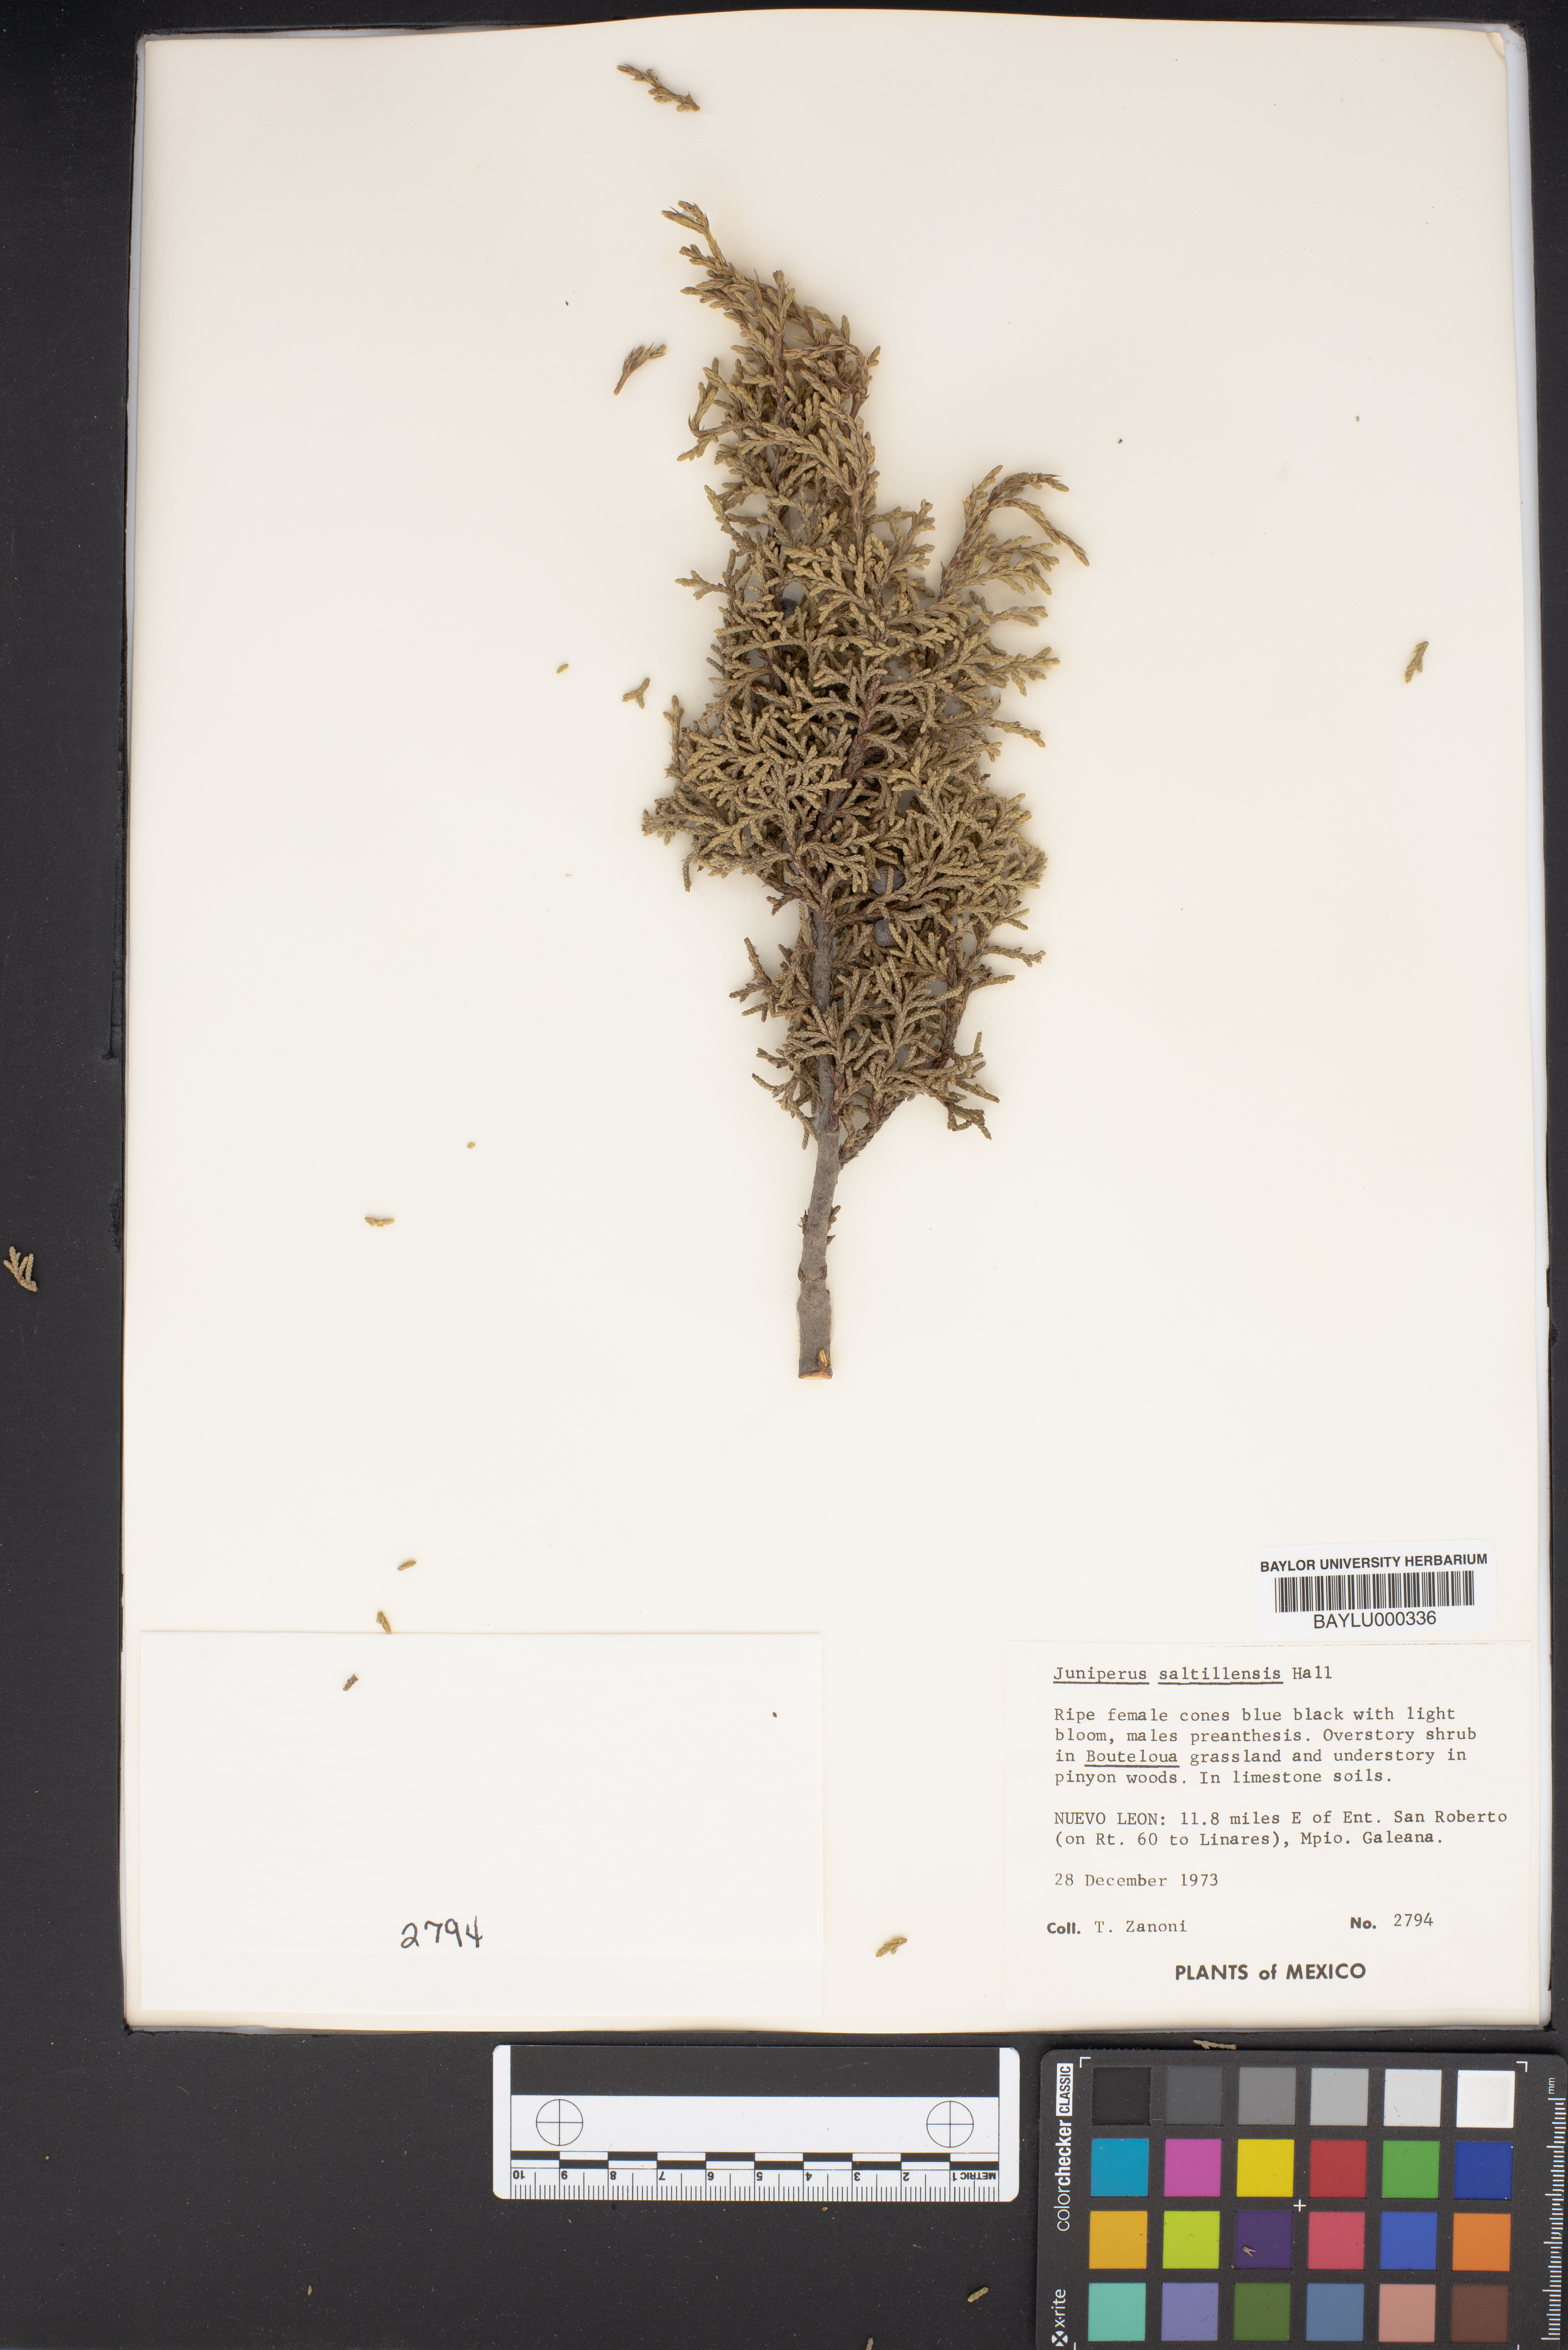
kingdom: Plantae
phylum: Tracheophyta
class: Pinopsida
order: Pinales
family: Cupressaceae
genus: Juniperus
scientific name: Juniperus saltillensis
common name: Saltillo juniper
